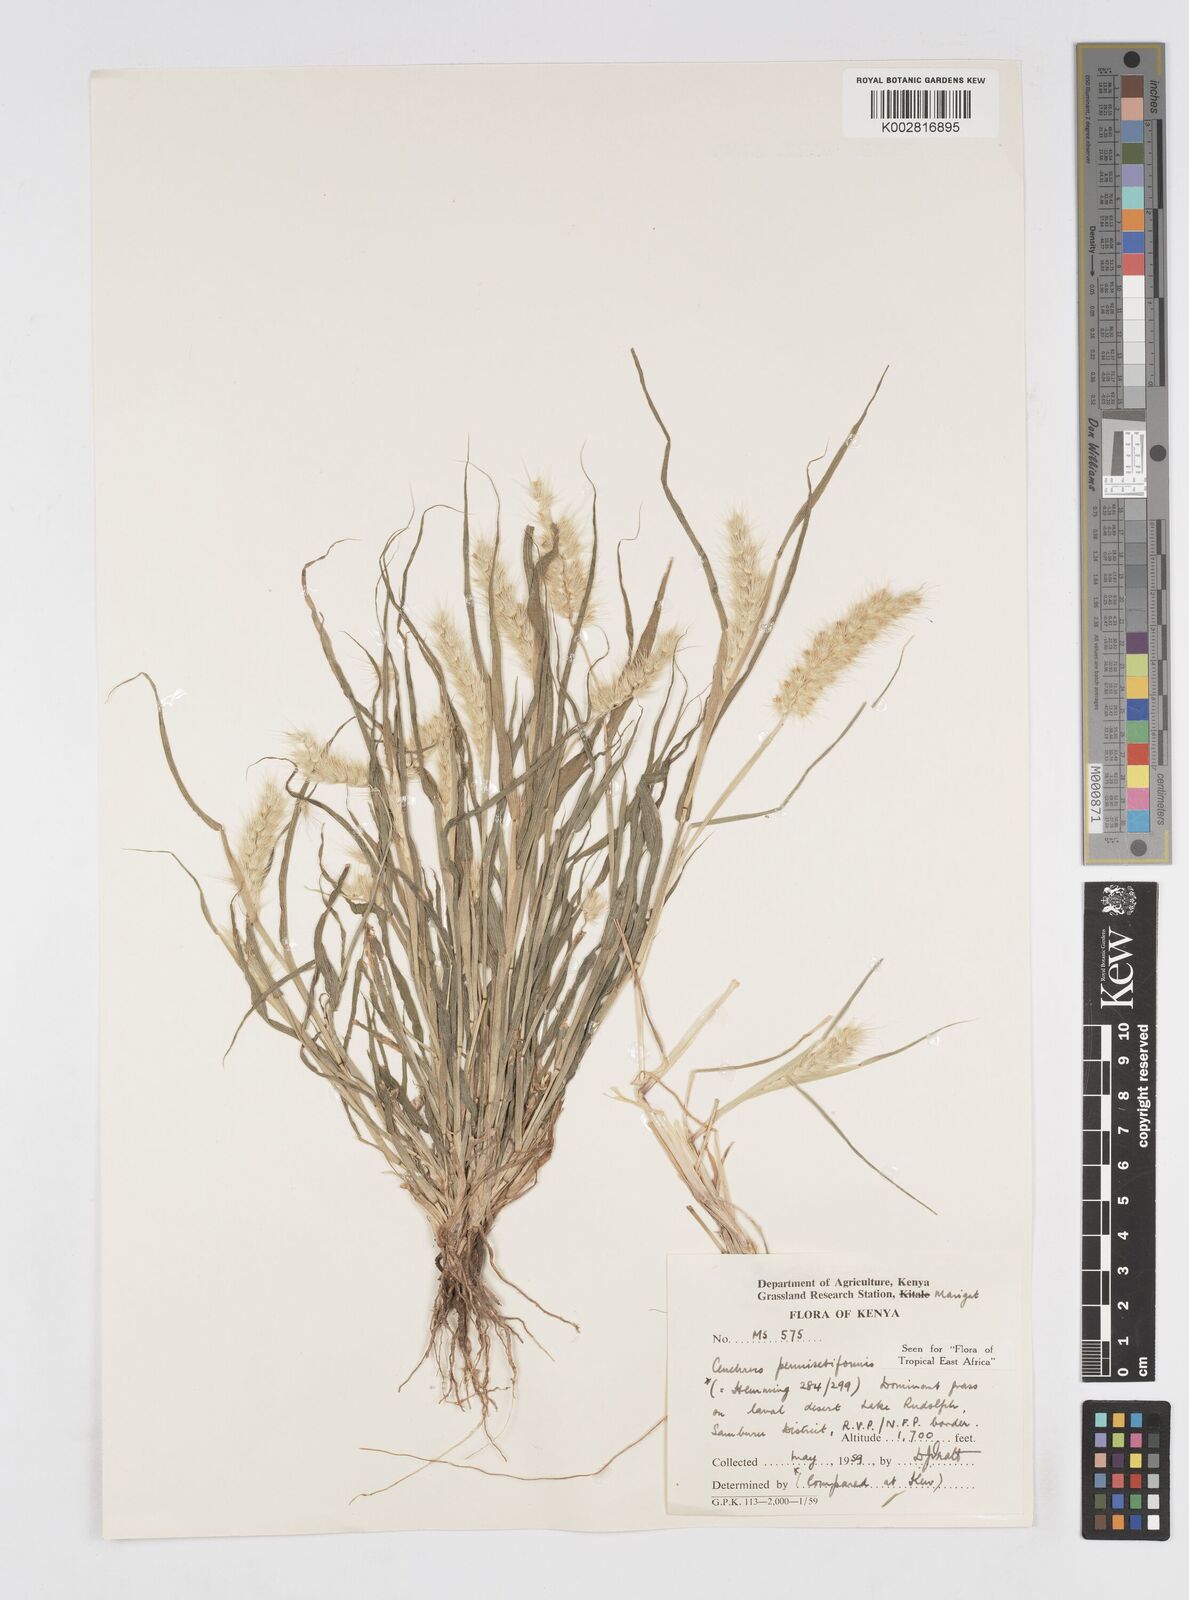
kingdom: Plantae
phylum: Tracheophyta
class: Liliopsida
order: Poales
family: Poaceae
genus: Cenchrus
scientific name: Cenchrus pennisetiformis
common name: Cloncurry
